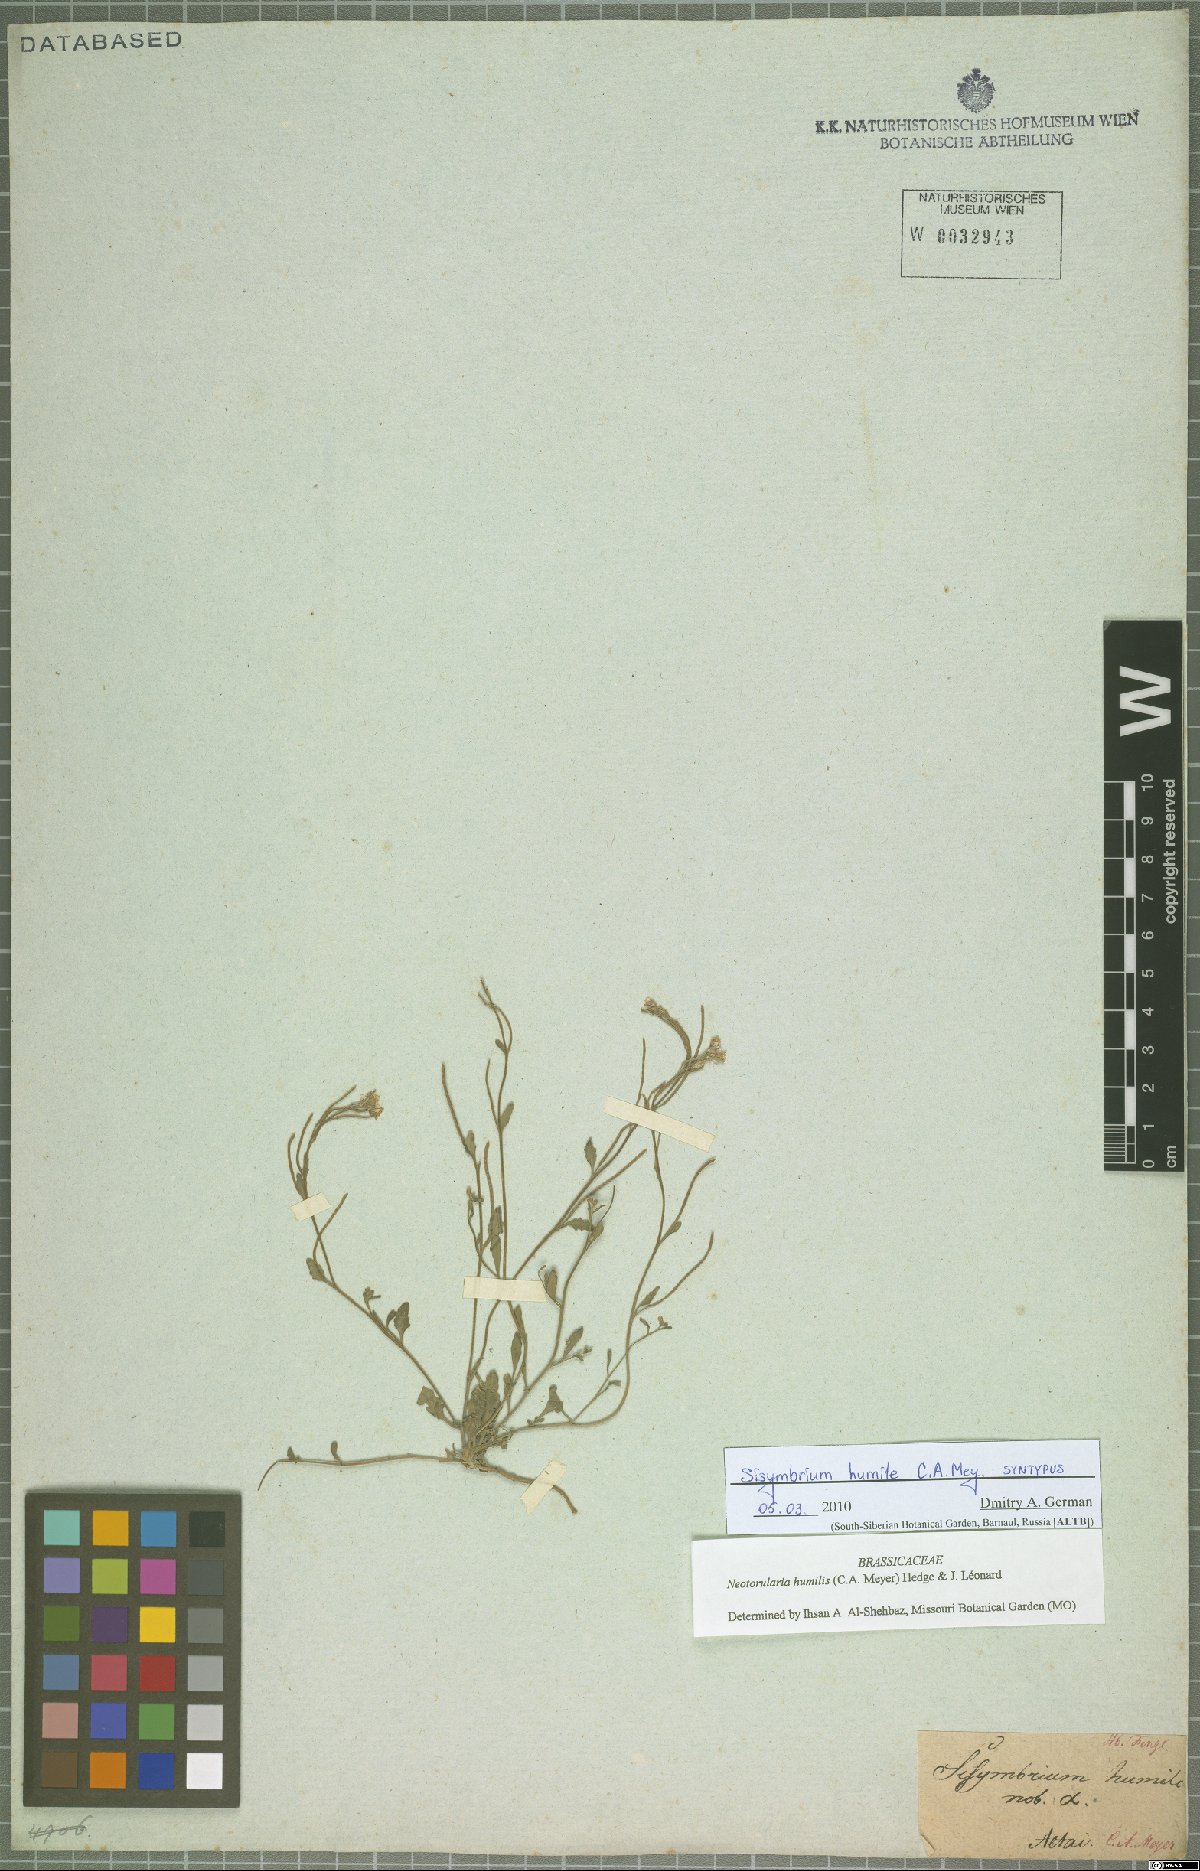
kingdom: Plantae
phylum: Tracheophyta
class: Magnoliopsida
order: Brassicales
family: Brassicaceae
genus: Braya
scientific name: Braya humilis
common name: Alpine northern rockcress
